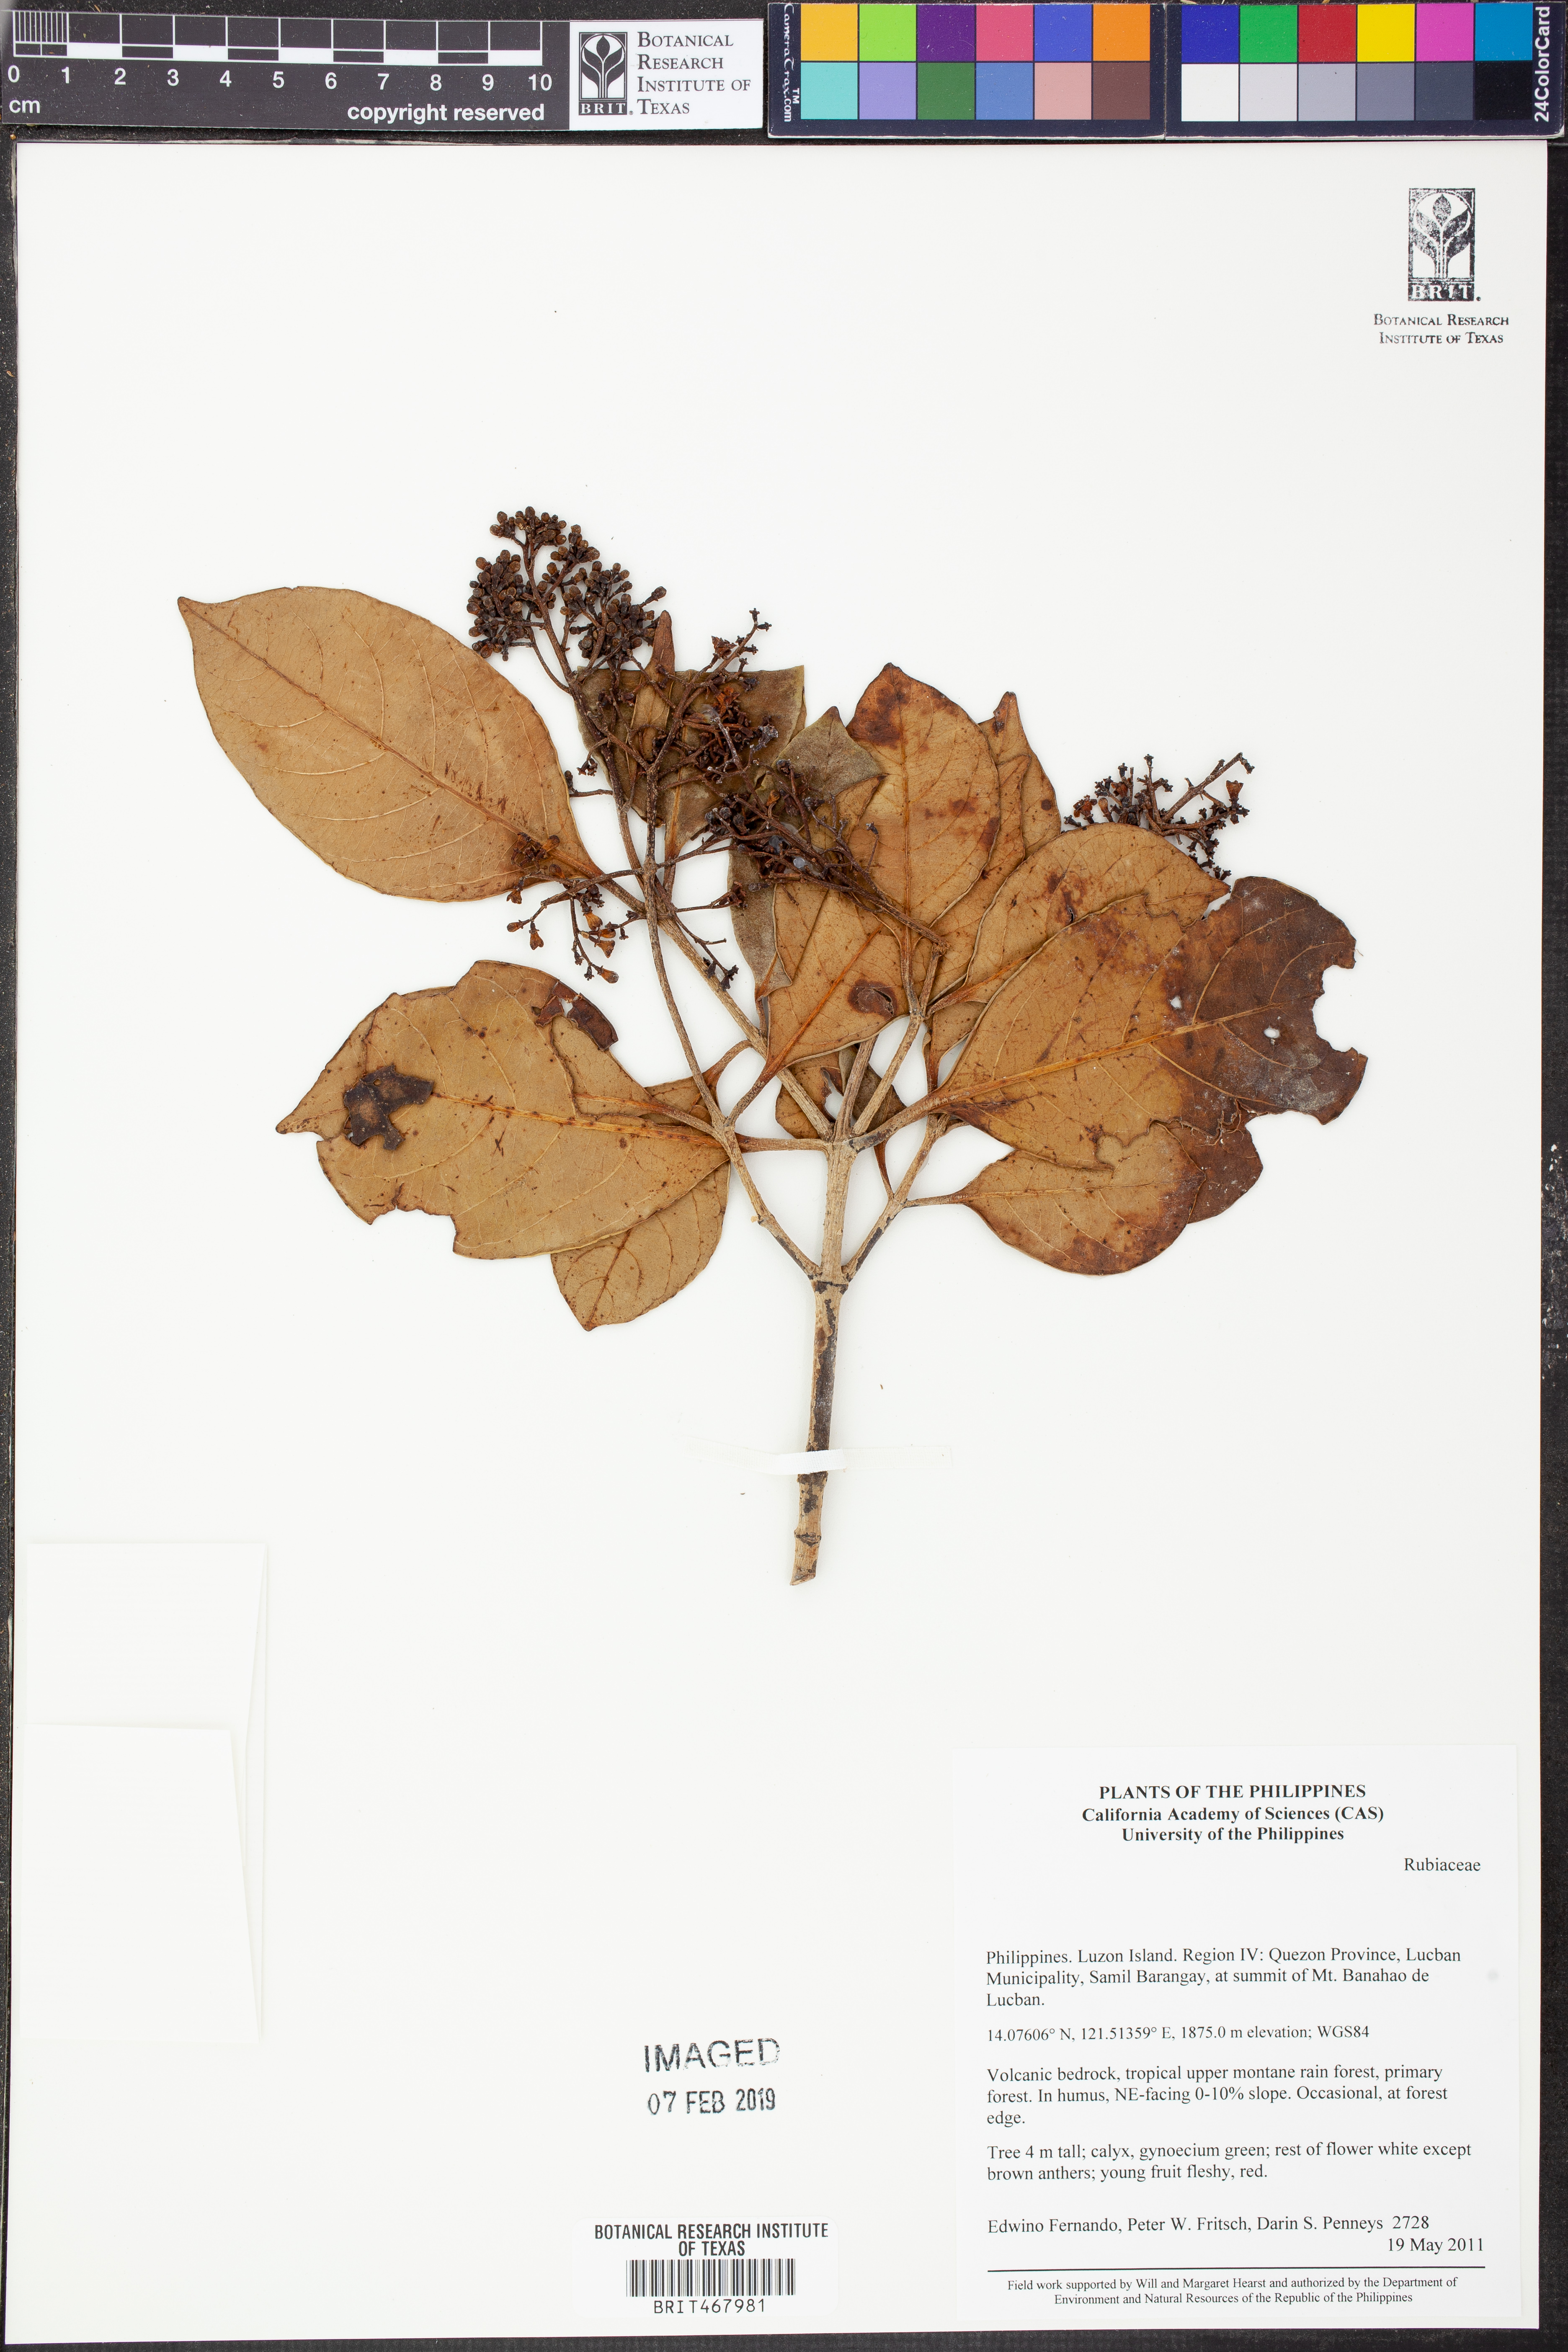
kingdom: Plantae
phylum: Tracheophyta
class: Magnoliopsida
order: Gentianales
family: Rubiaceae
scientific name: Rubiaceae
